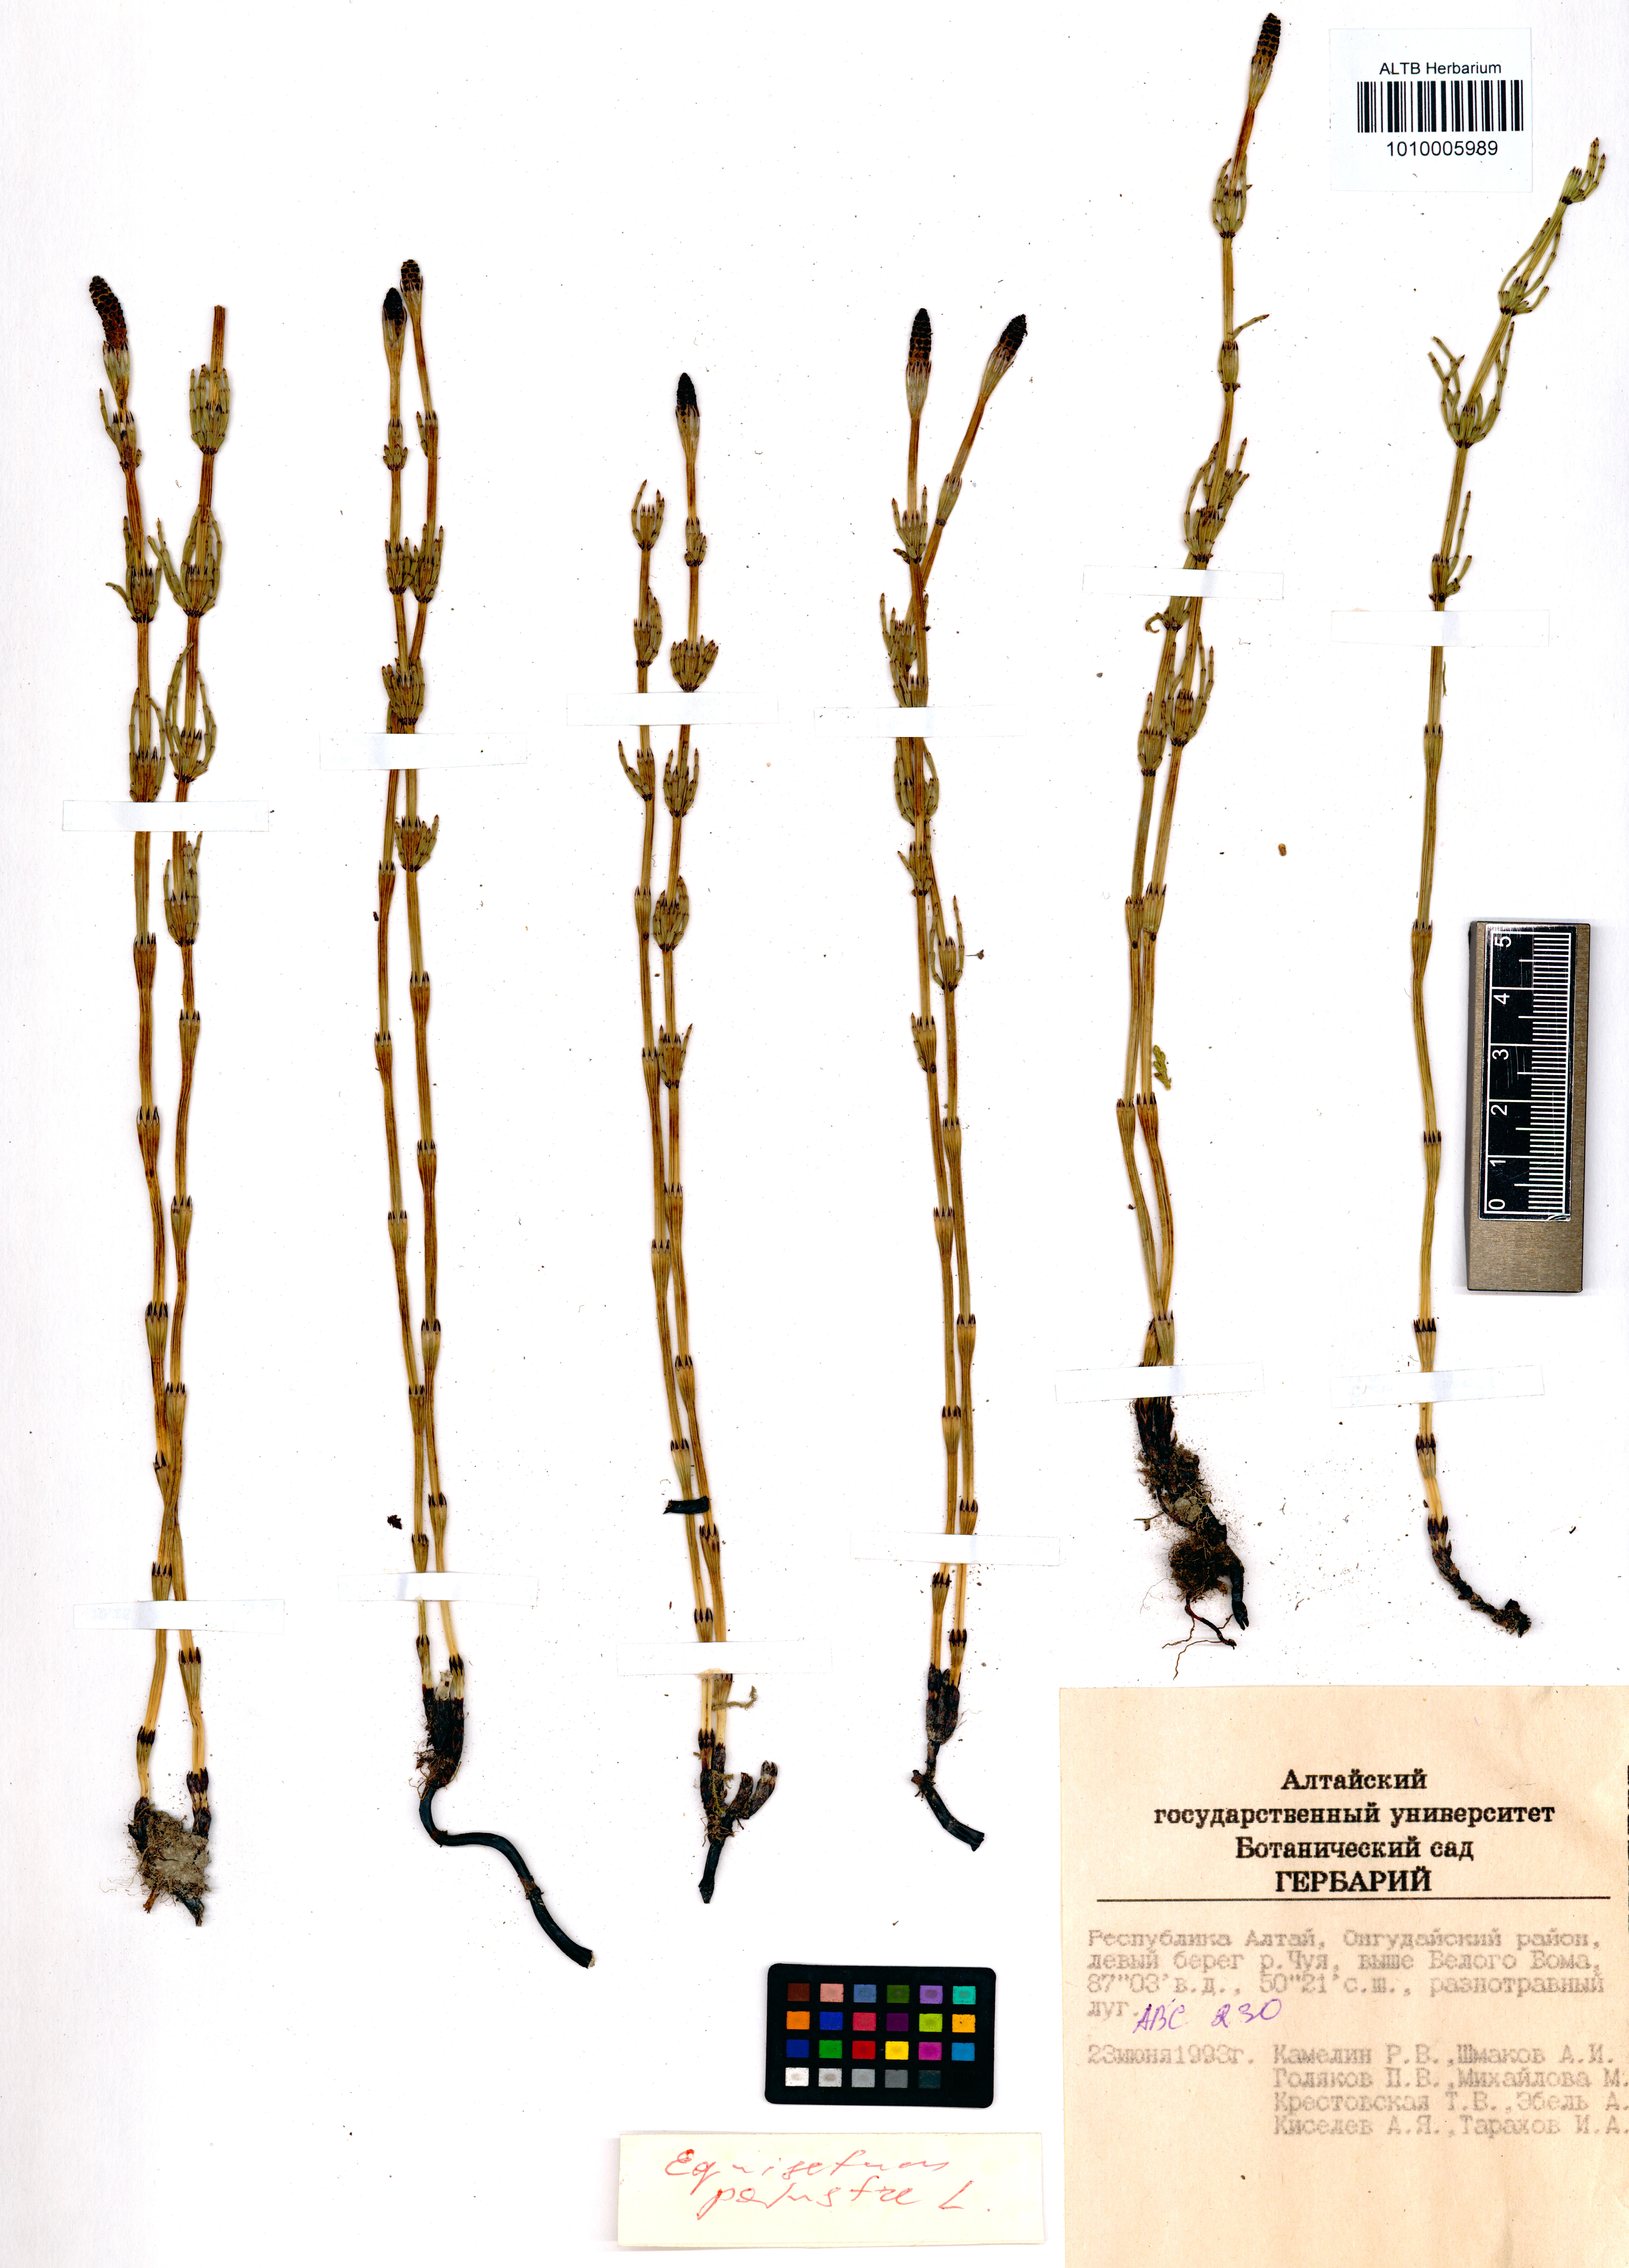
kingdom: Plantae
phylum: Tracheophyta
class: Polypodiopsida
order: Equisetales
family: Equisetaceae
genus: Equisetum
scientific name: Equisetum palustre
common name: Marsh horsetail
